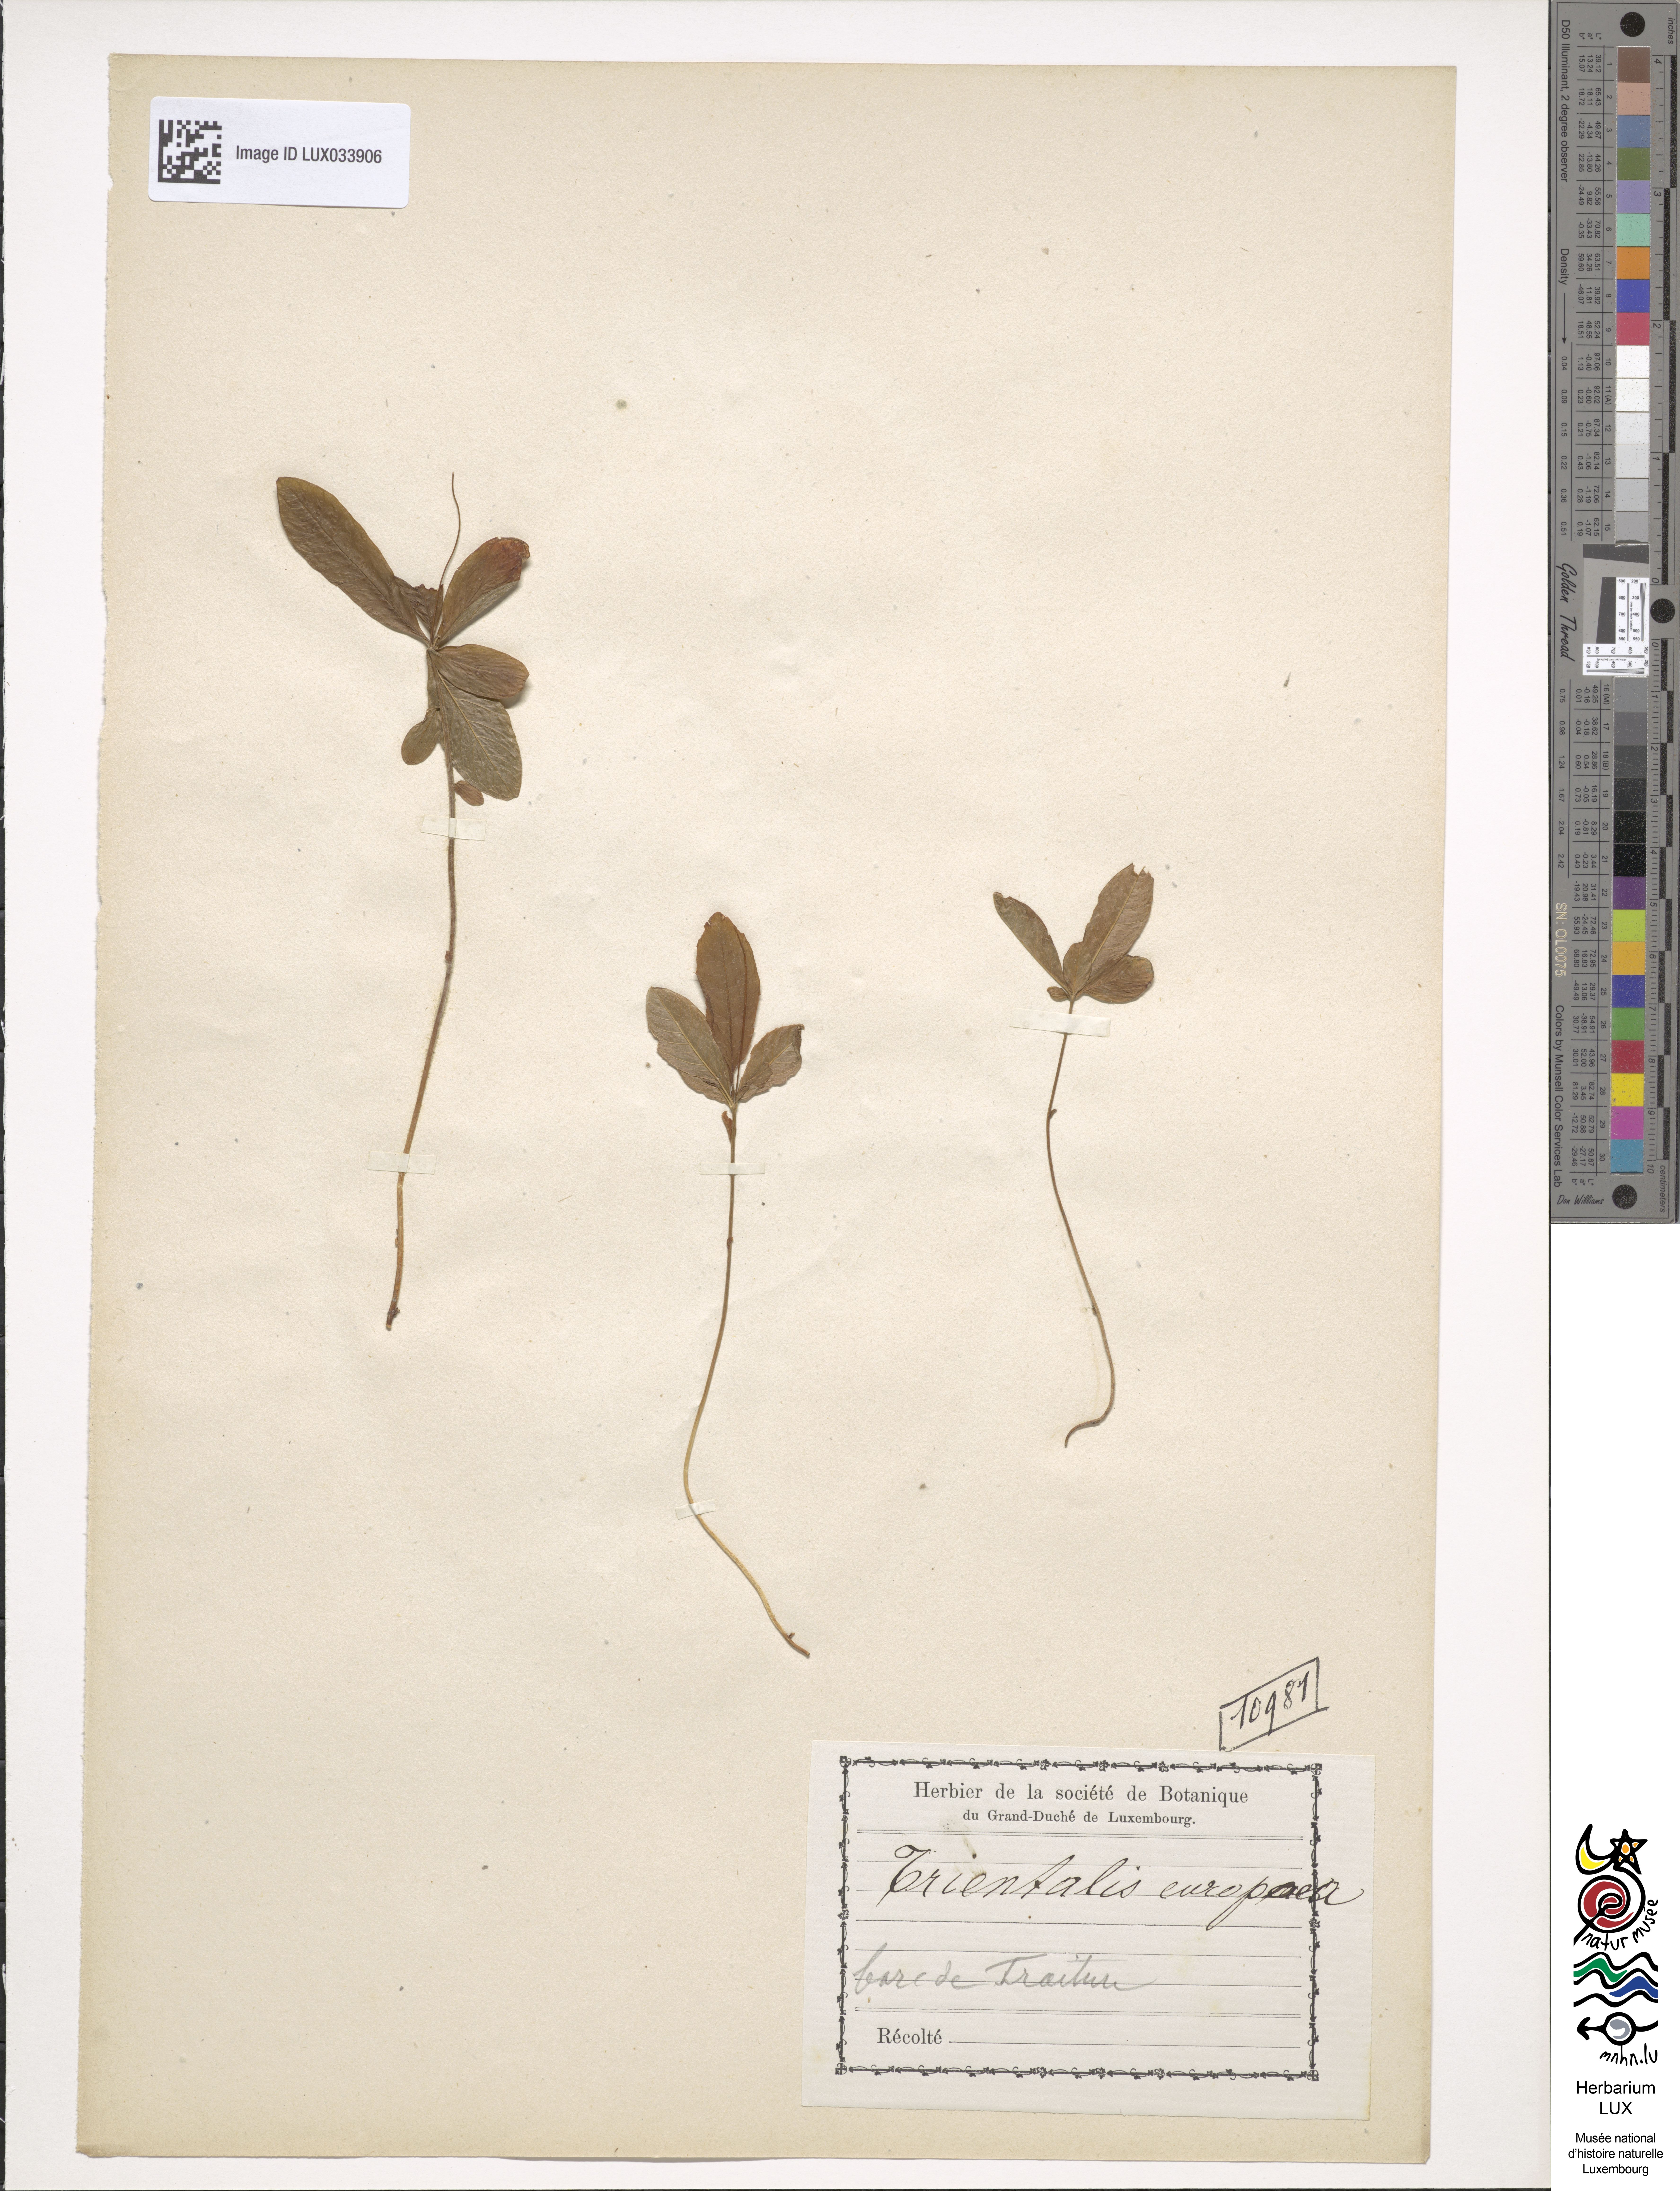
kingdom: Plantae
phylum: Tracheophyta
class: Magnoliopsida
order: Ericales
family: Primulaceae
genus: Lysimachia
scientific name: Lysimachia europaea
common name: Arctic starflower
